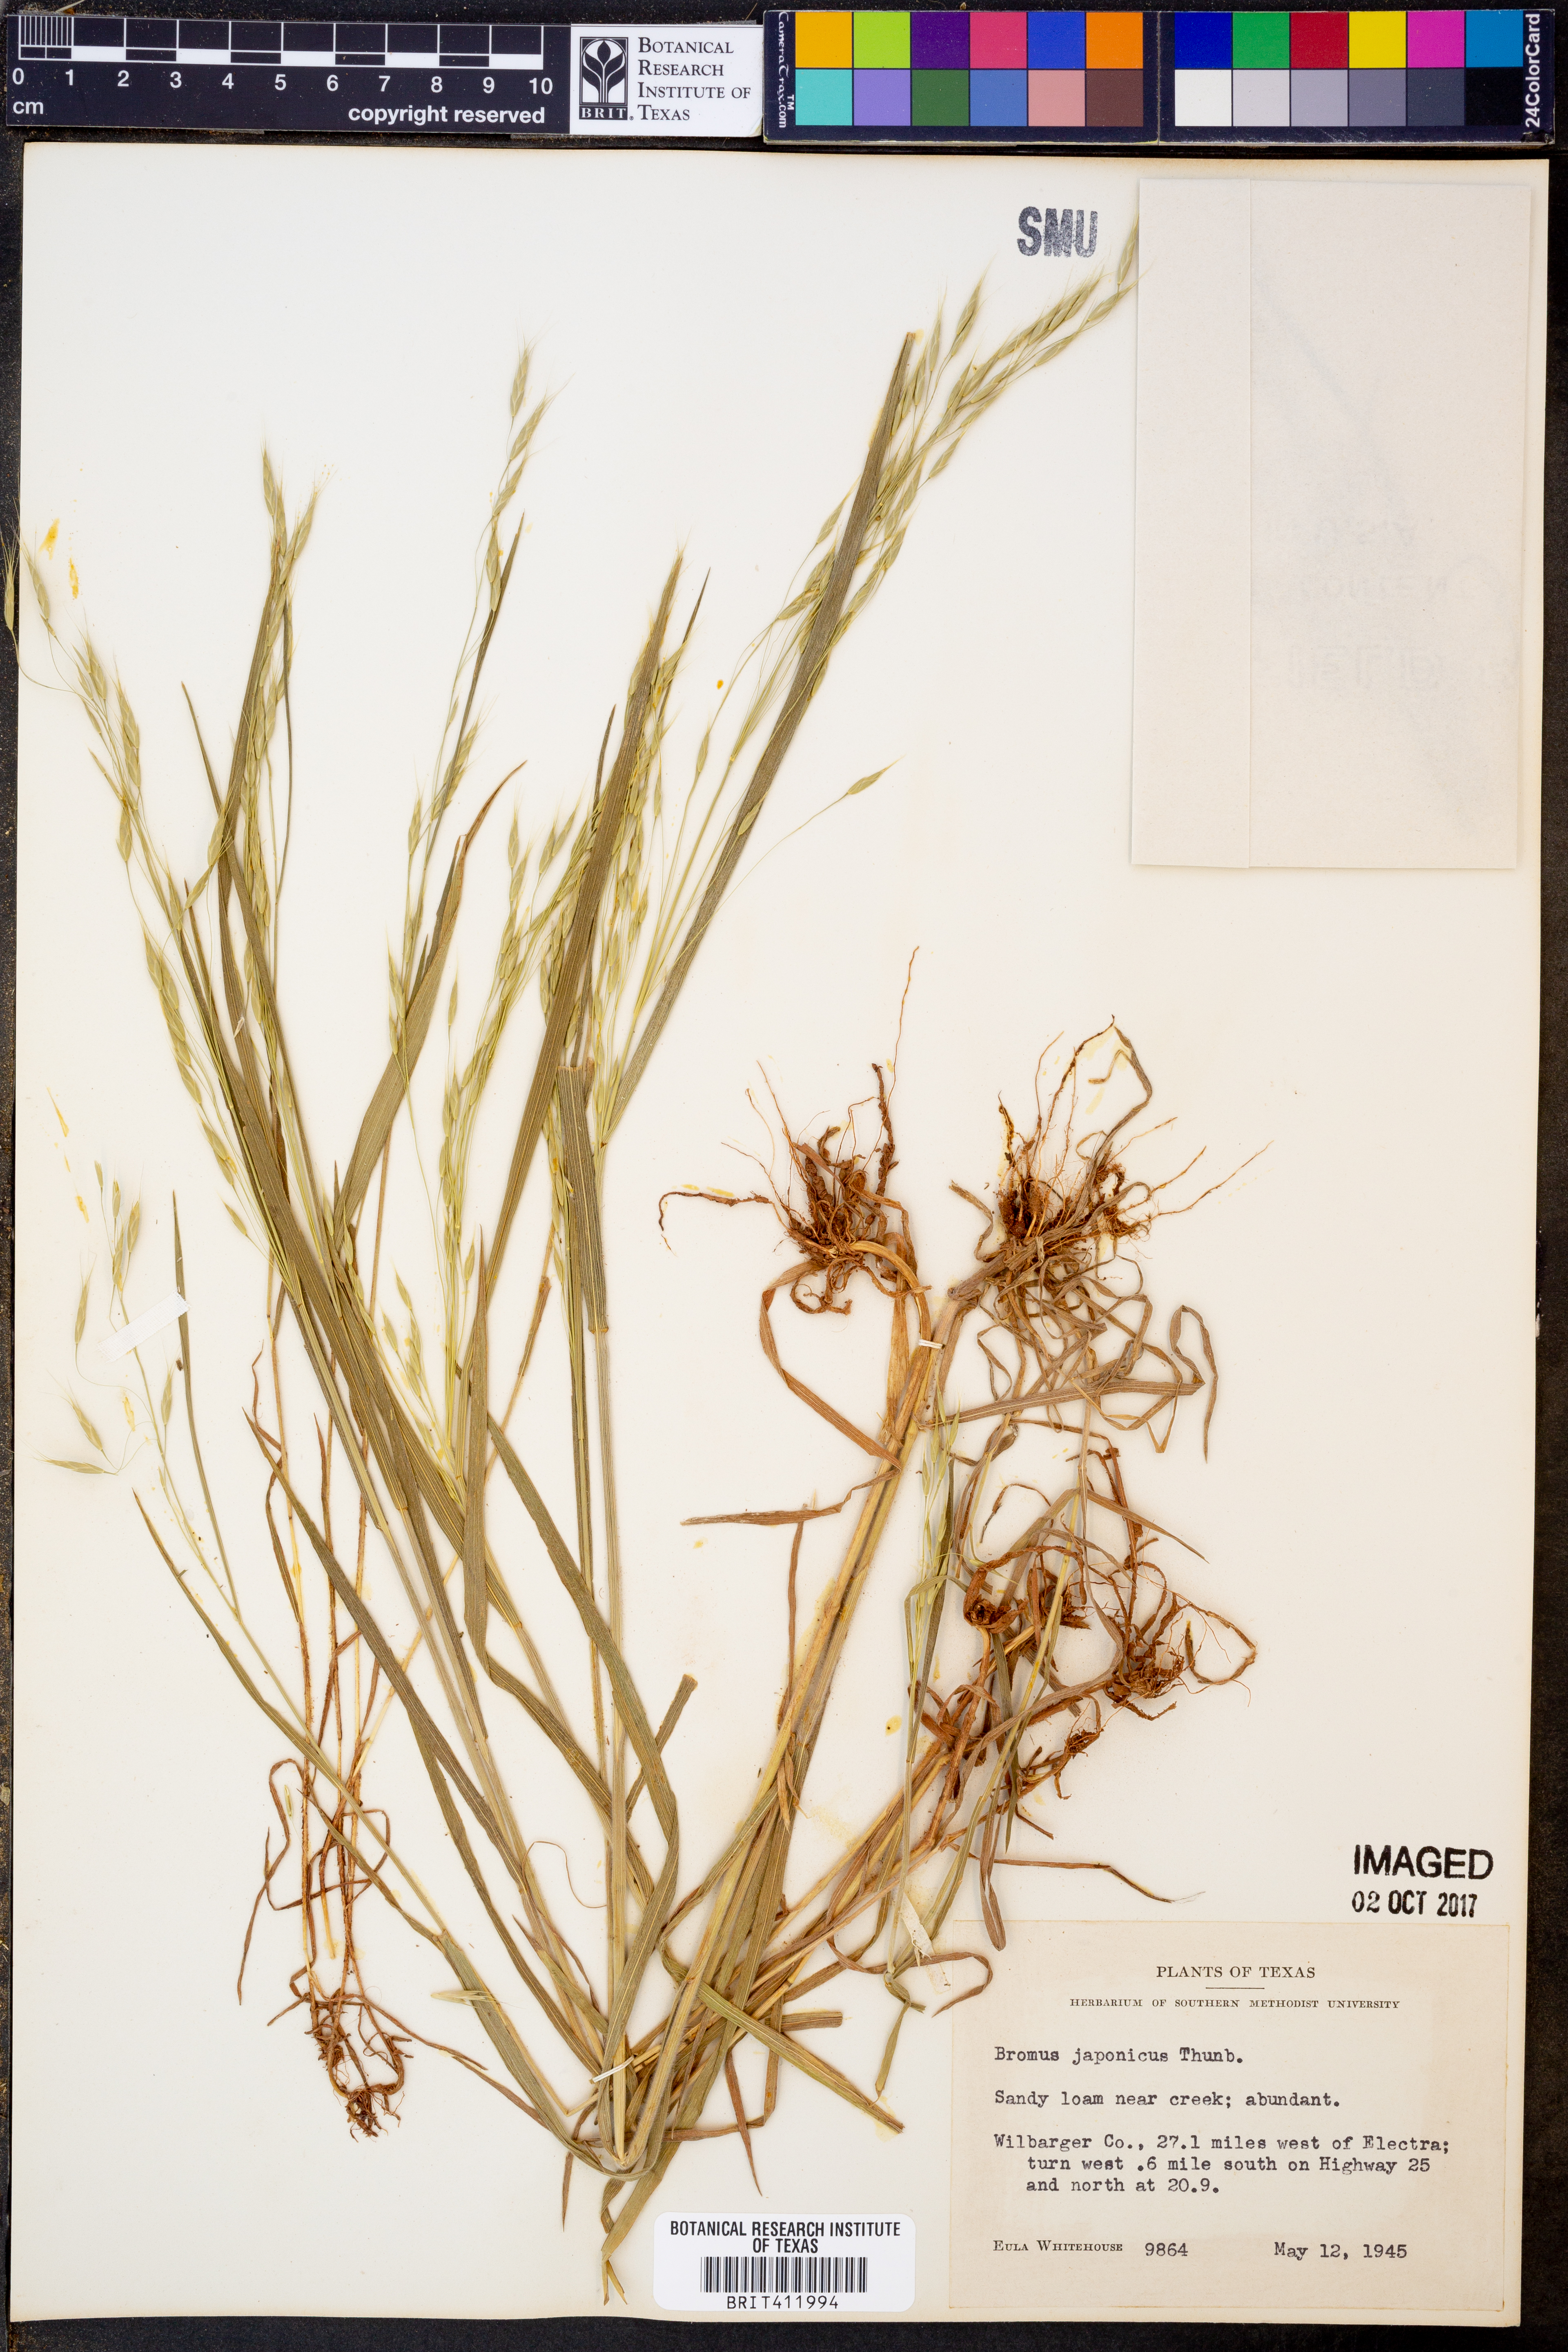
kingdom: Plantae
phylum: Tracheophyta
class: Liliopsida
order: Poales
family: Poaceae
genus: Bromus
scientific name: Bromus japonicus
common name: Japanese brome
